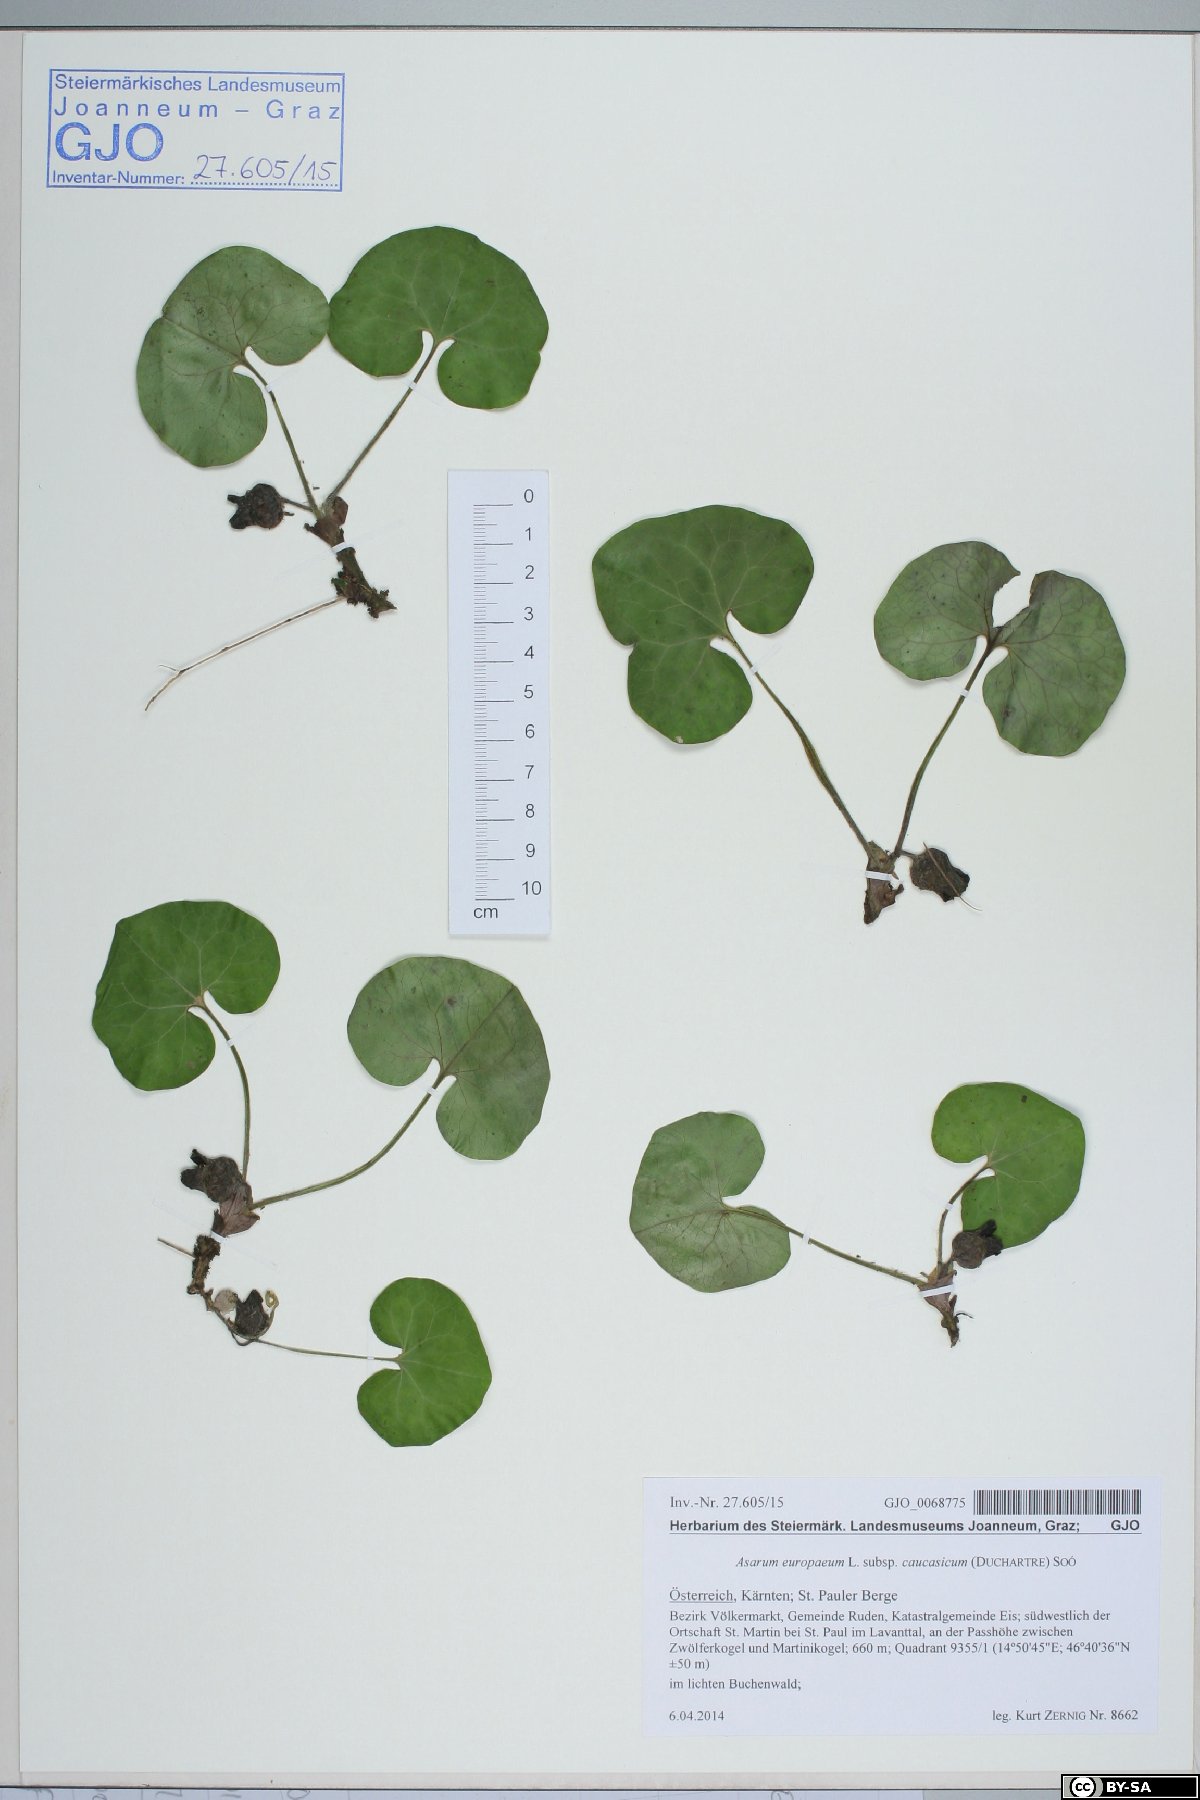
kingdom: Plantae
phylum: Tracheophyta
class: Magnoliopsida
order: Piperales
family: Aristolochiaceae
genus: Asarum
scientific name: Asarum europaeum
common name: Asarabacca
